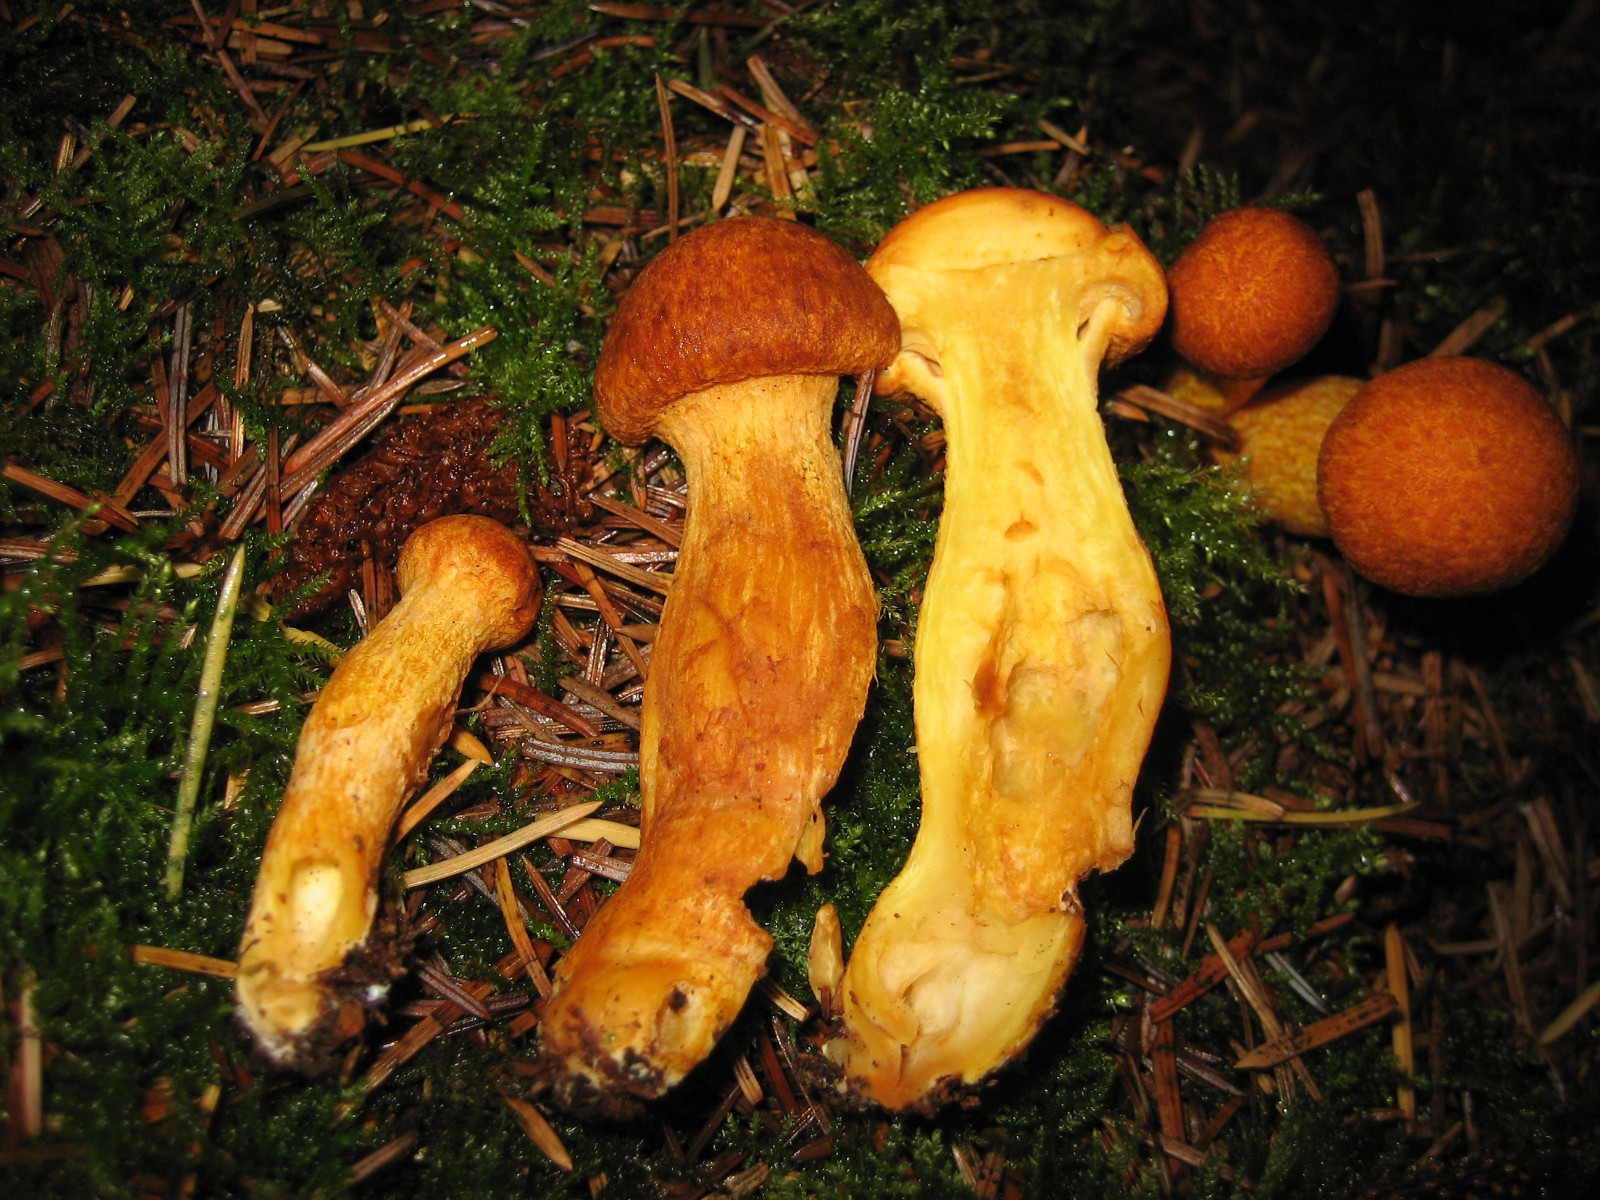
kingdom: Fungi
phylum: Basidiomycota
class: Agaricomycetes
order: Agaricales
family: Hymenogastraceae
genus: Gymnopilus
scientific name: Gymnopilus spectabilis
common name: fibret flammehat
